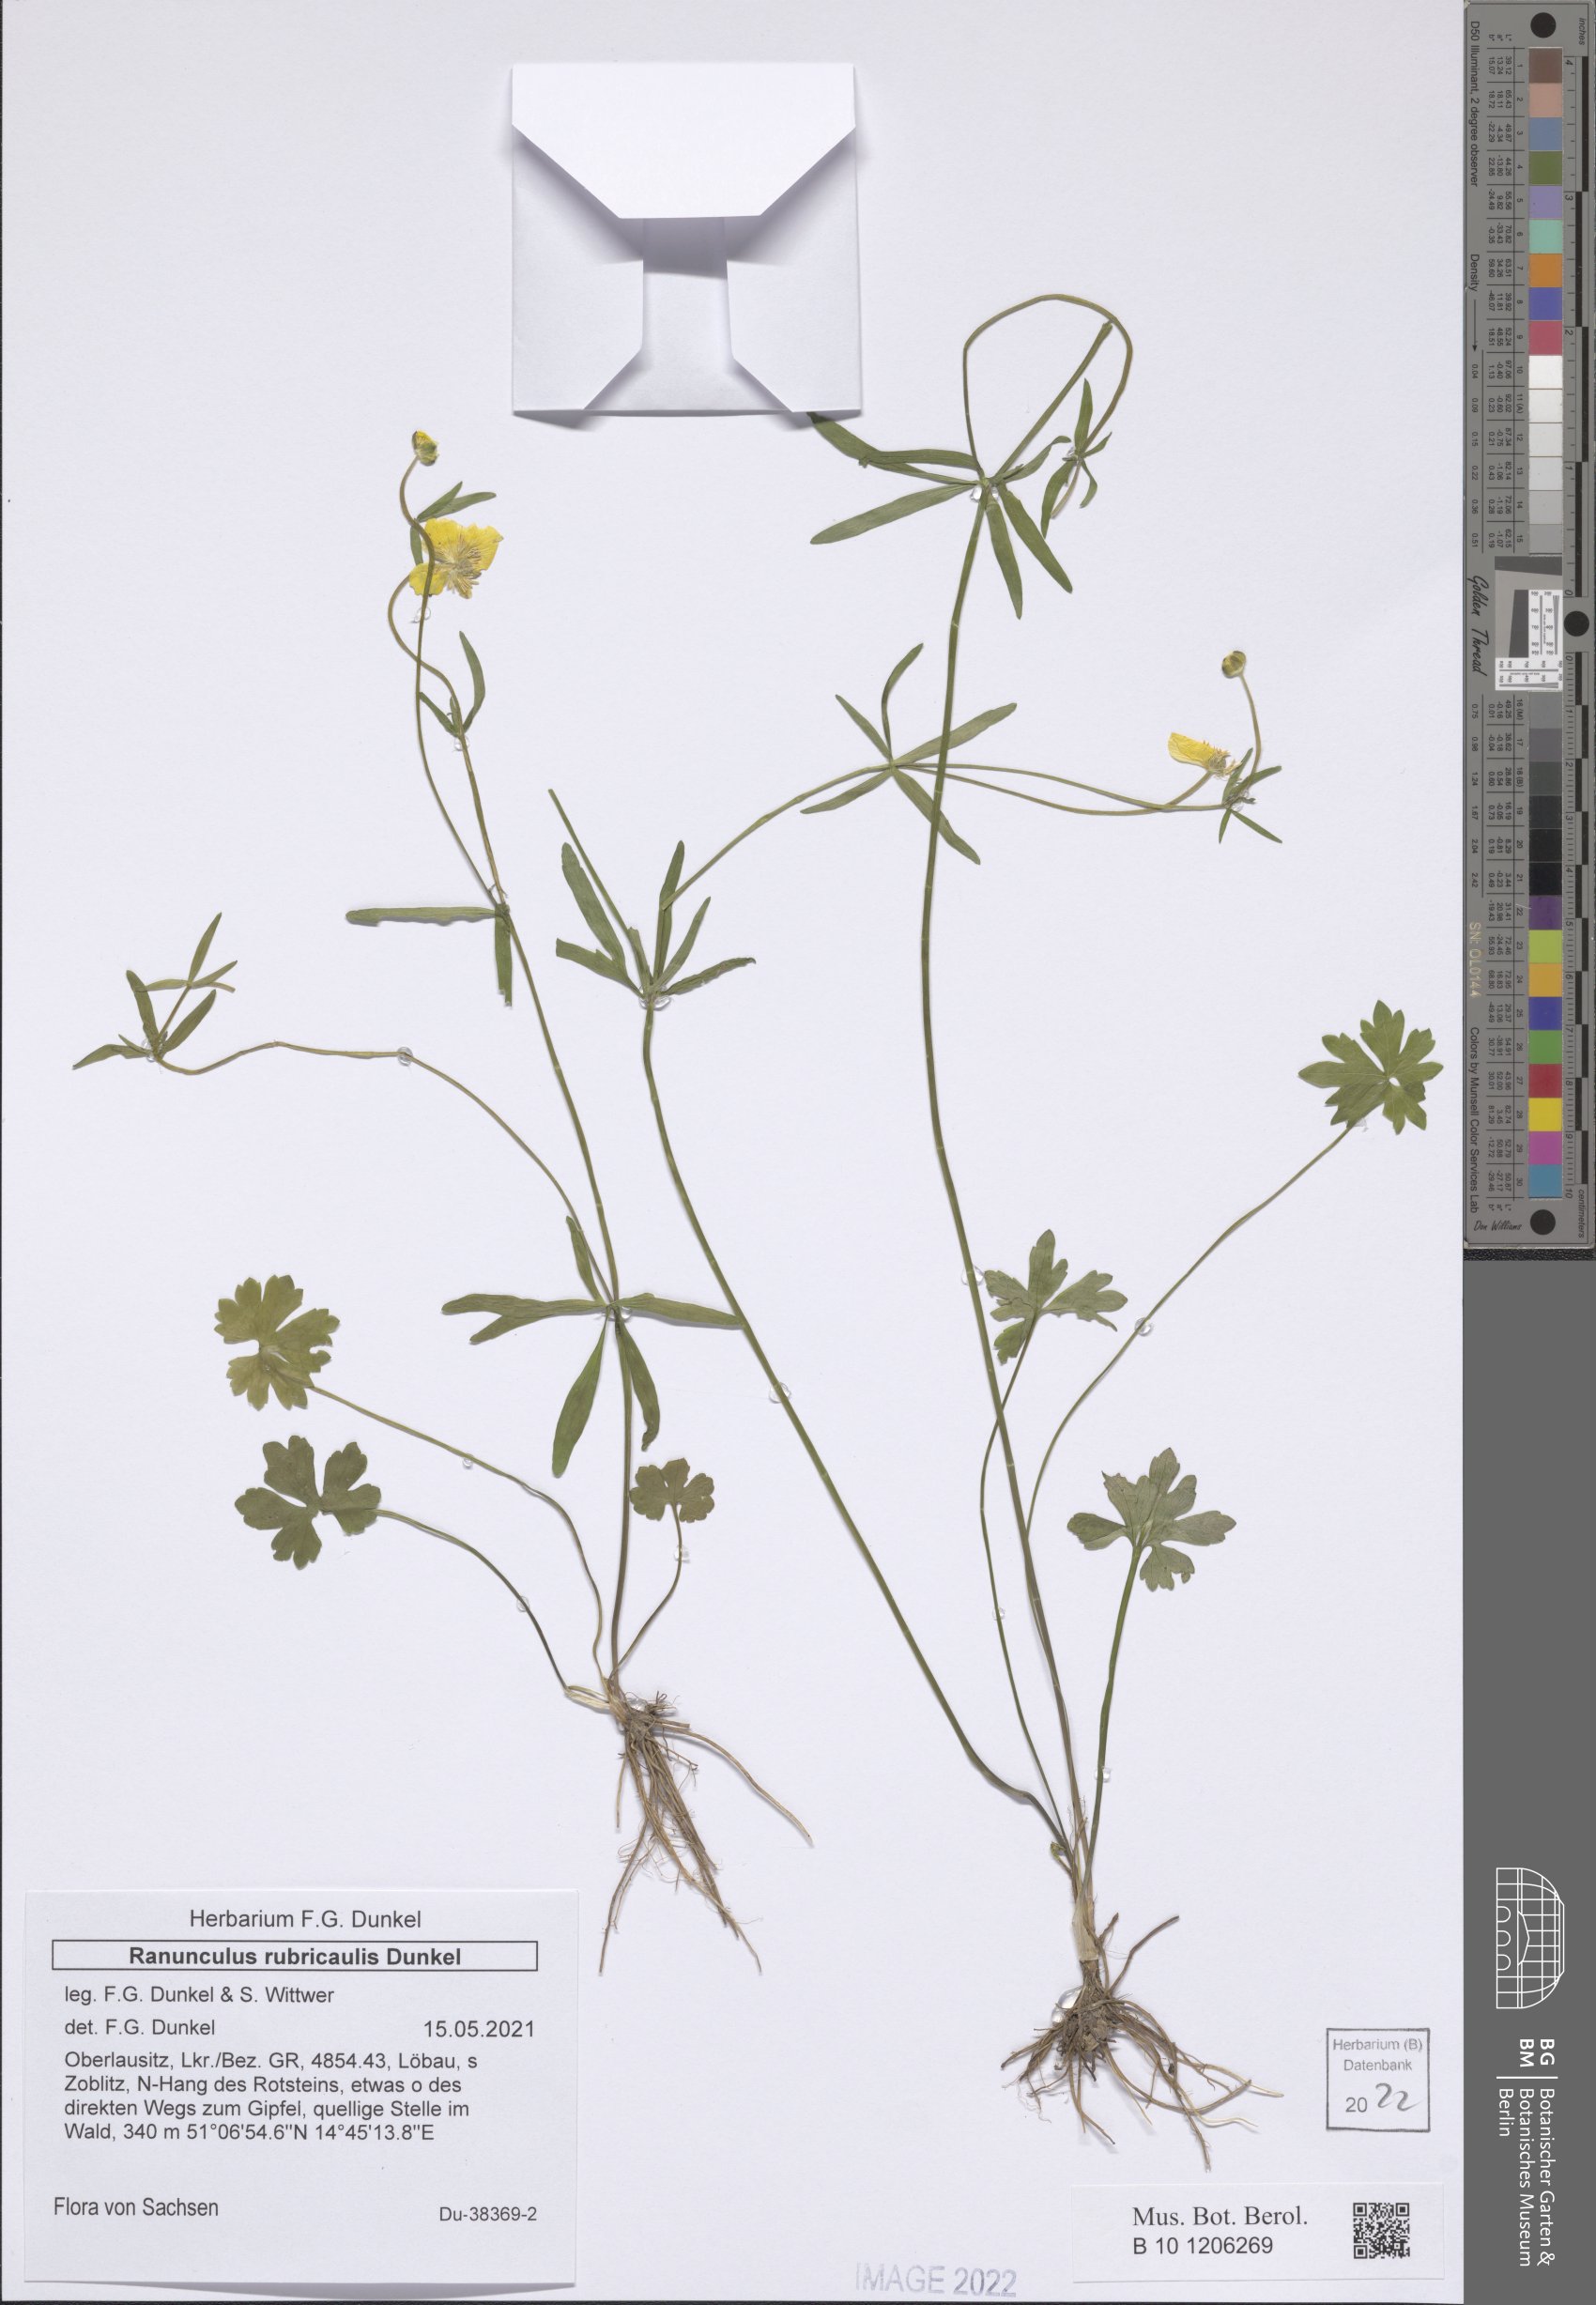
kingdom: Plantae
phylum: Tracheophyta
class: Magnoliopsida
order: Ranunculales
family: Ranunculaceae
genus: Ranunculus
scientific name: Ranunculus rubricaulis
